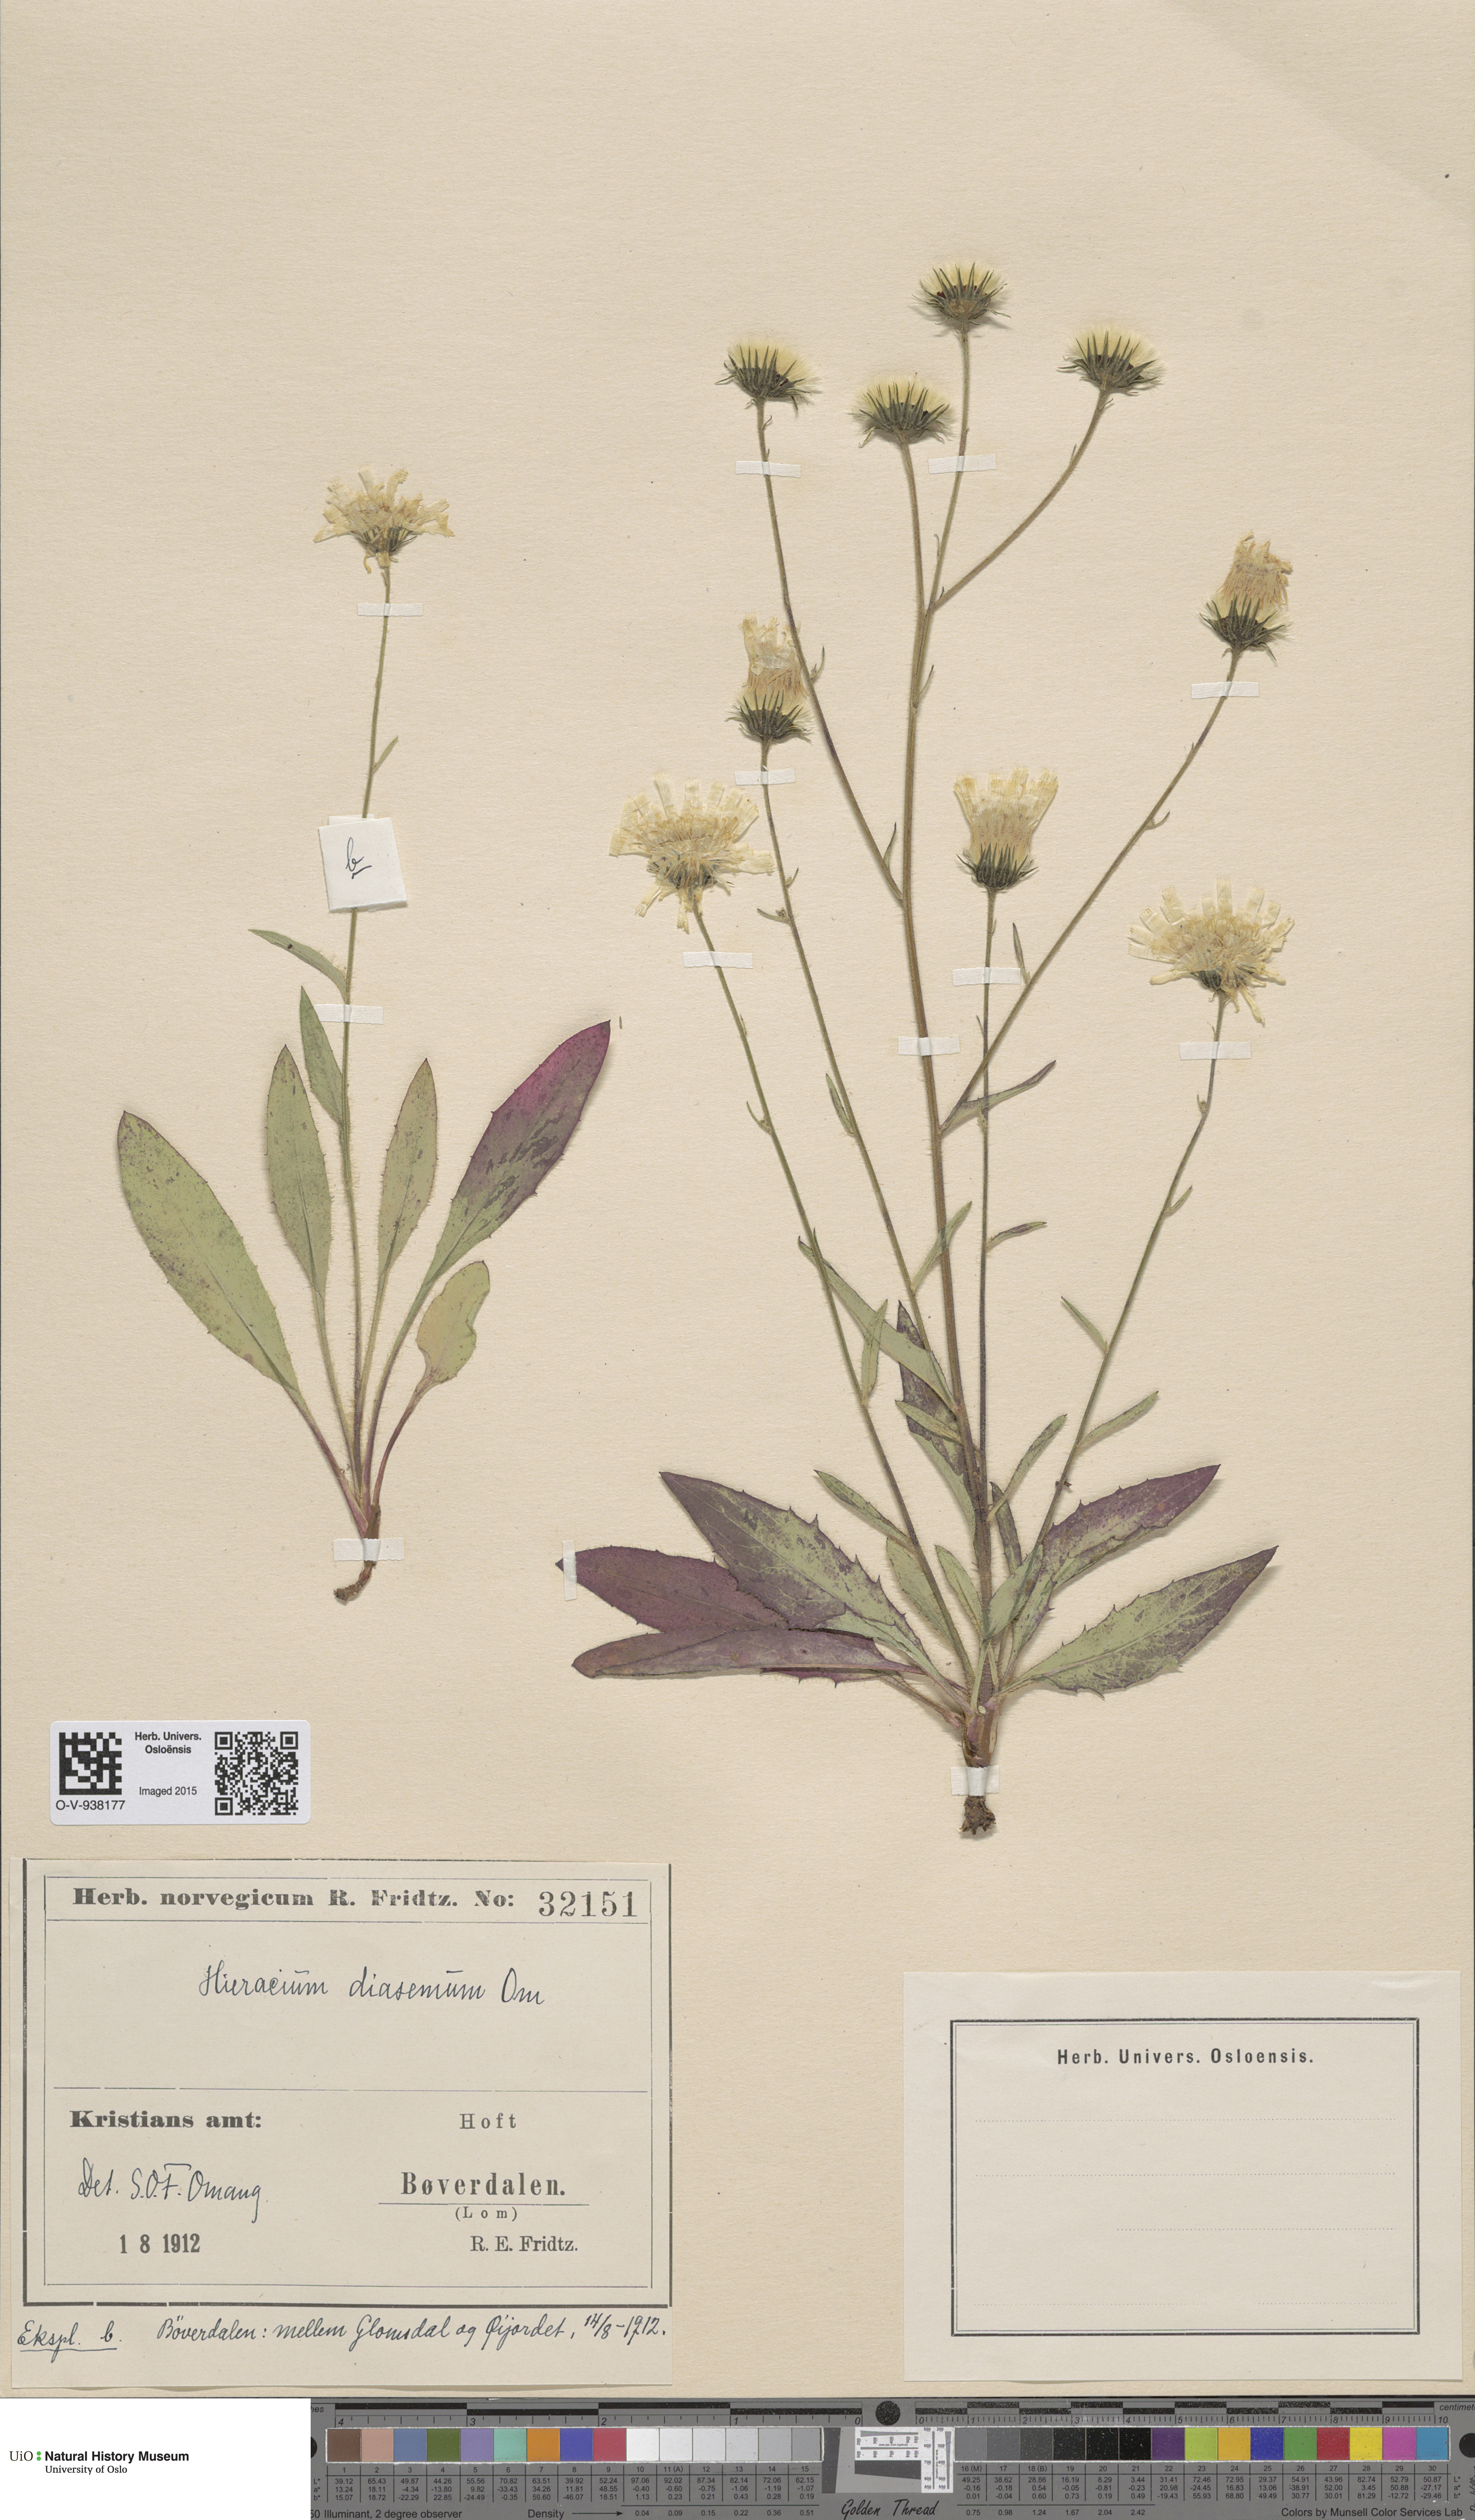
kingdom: Plantae
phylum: Tracheophyta
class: Magnoliopsida
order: Asterales
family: Asteraceae
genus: Hieracium
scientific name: Hieracium saxifragum
